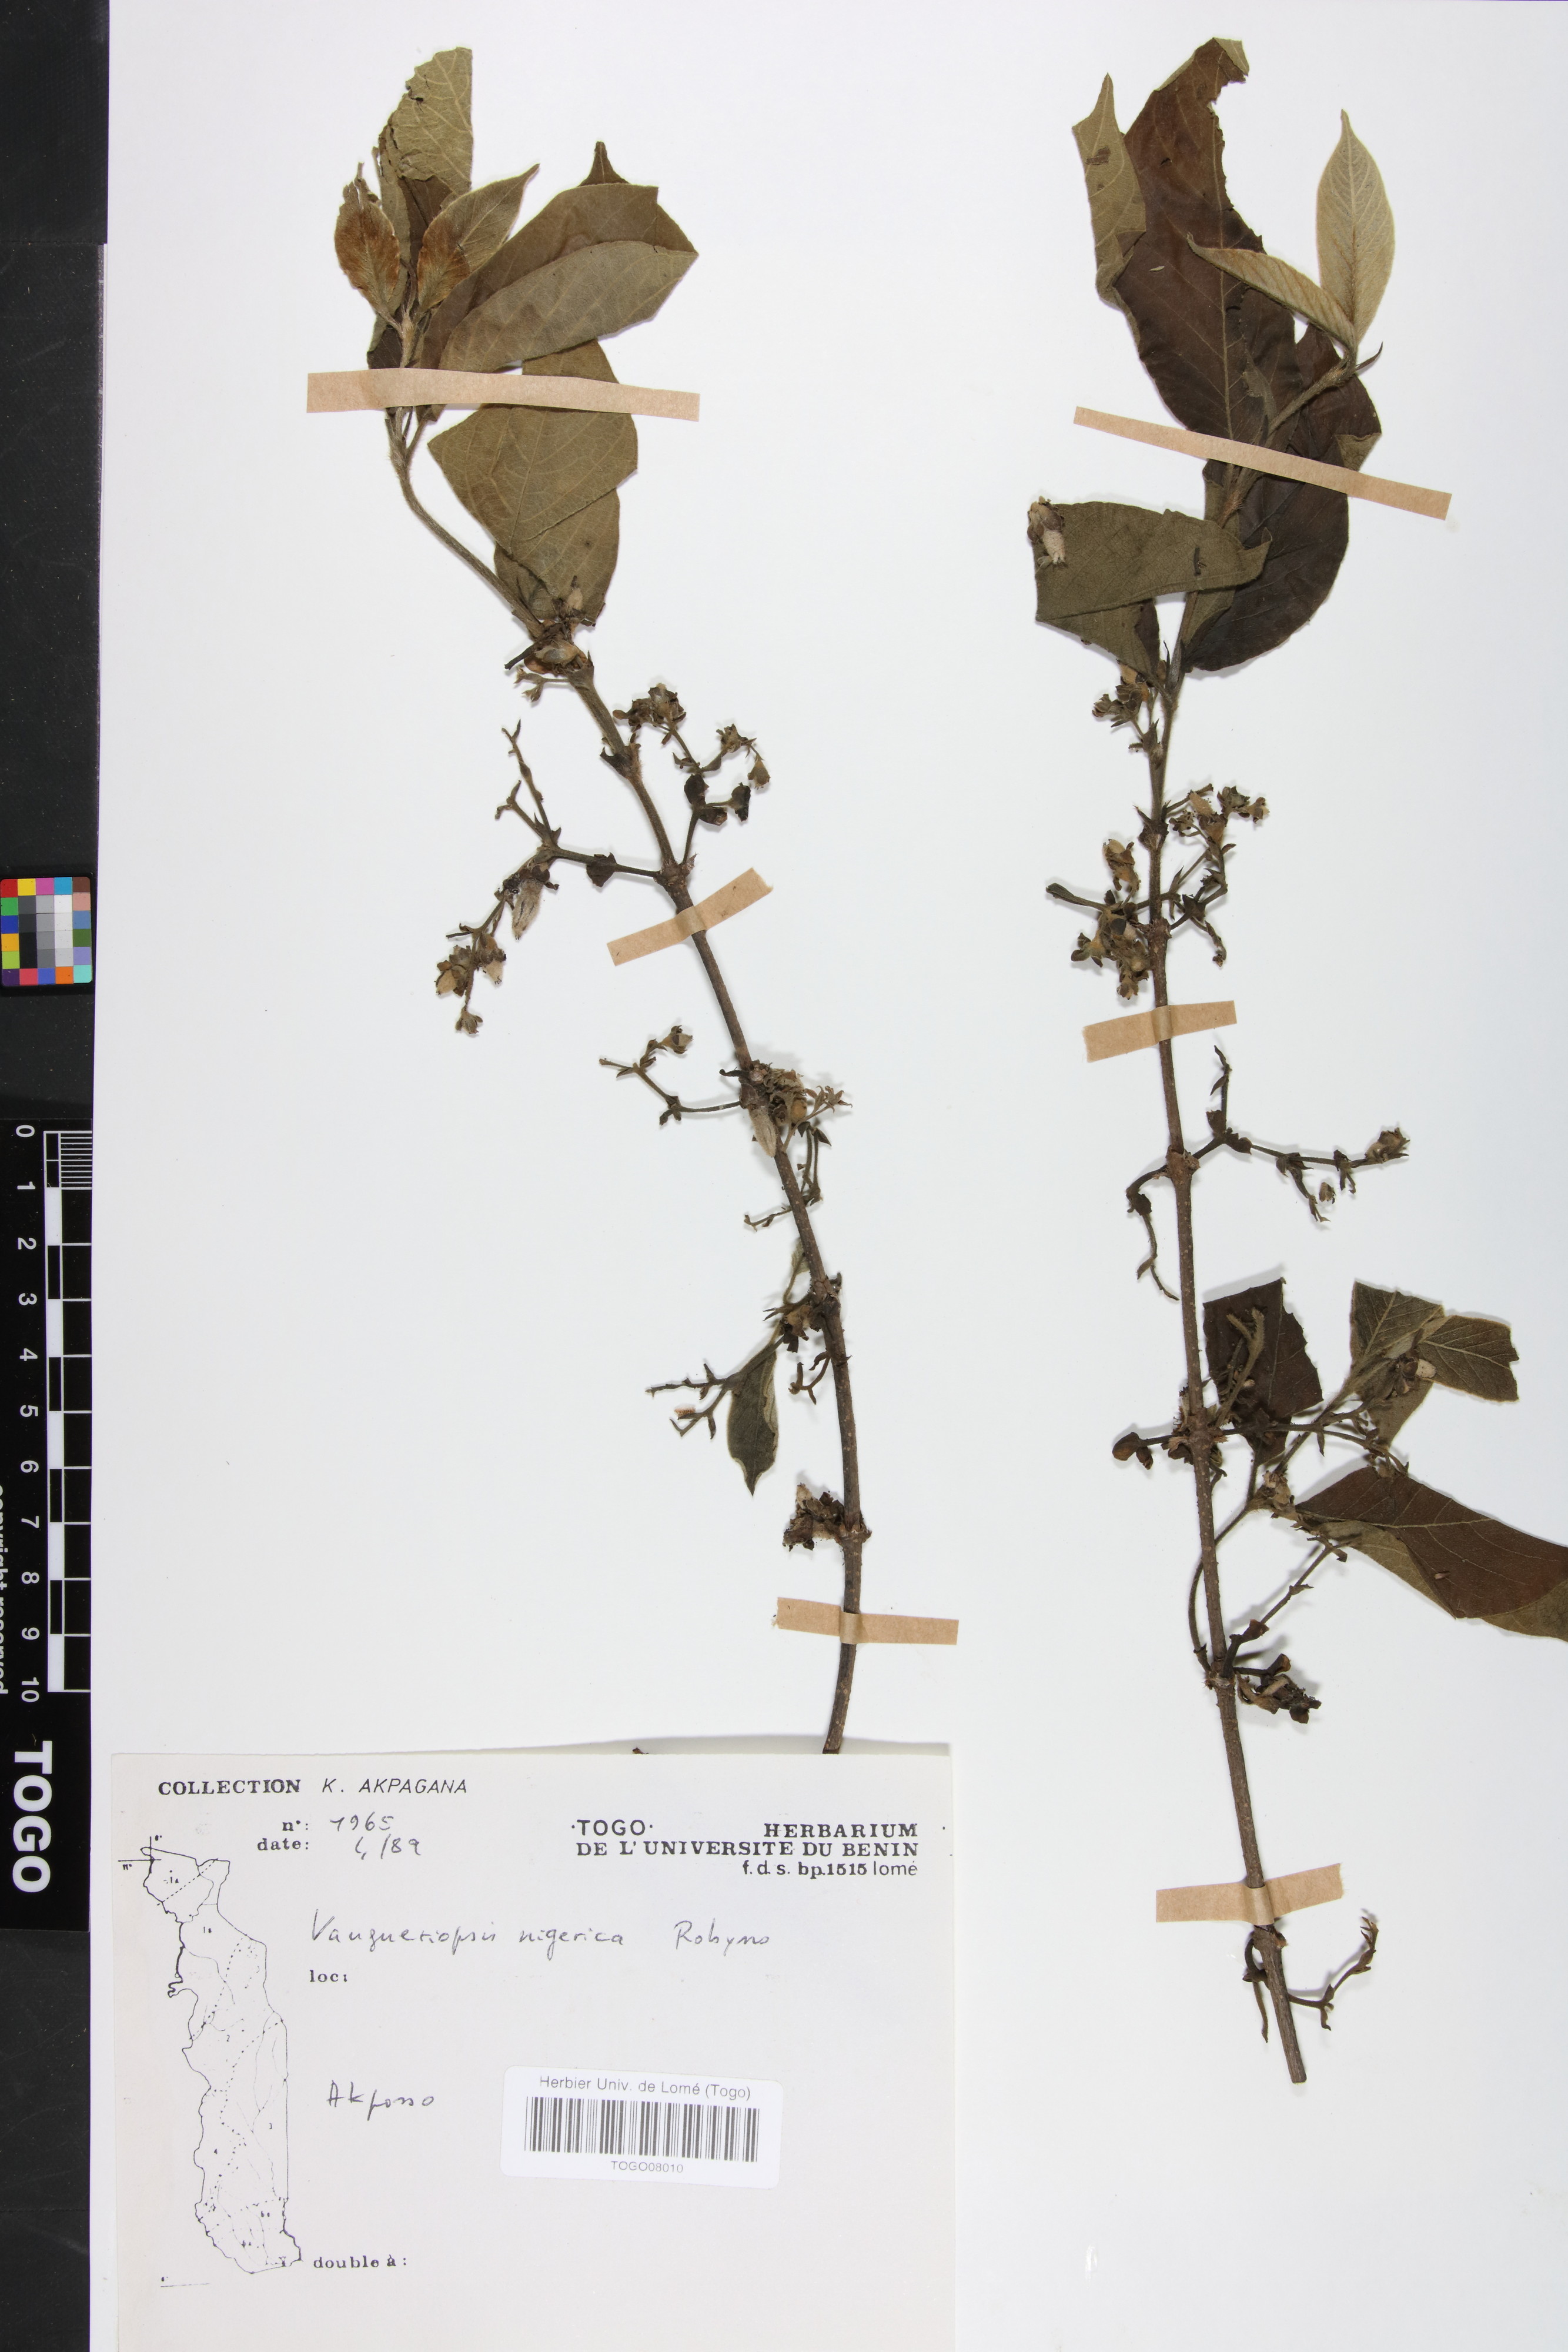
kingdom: Plantae
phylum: Tracheophyta
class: Magnoliopsida
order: Gentianales
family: Rubiaceae
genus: Vangueriella
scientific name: Vangueriella nigerica
